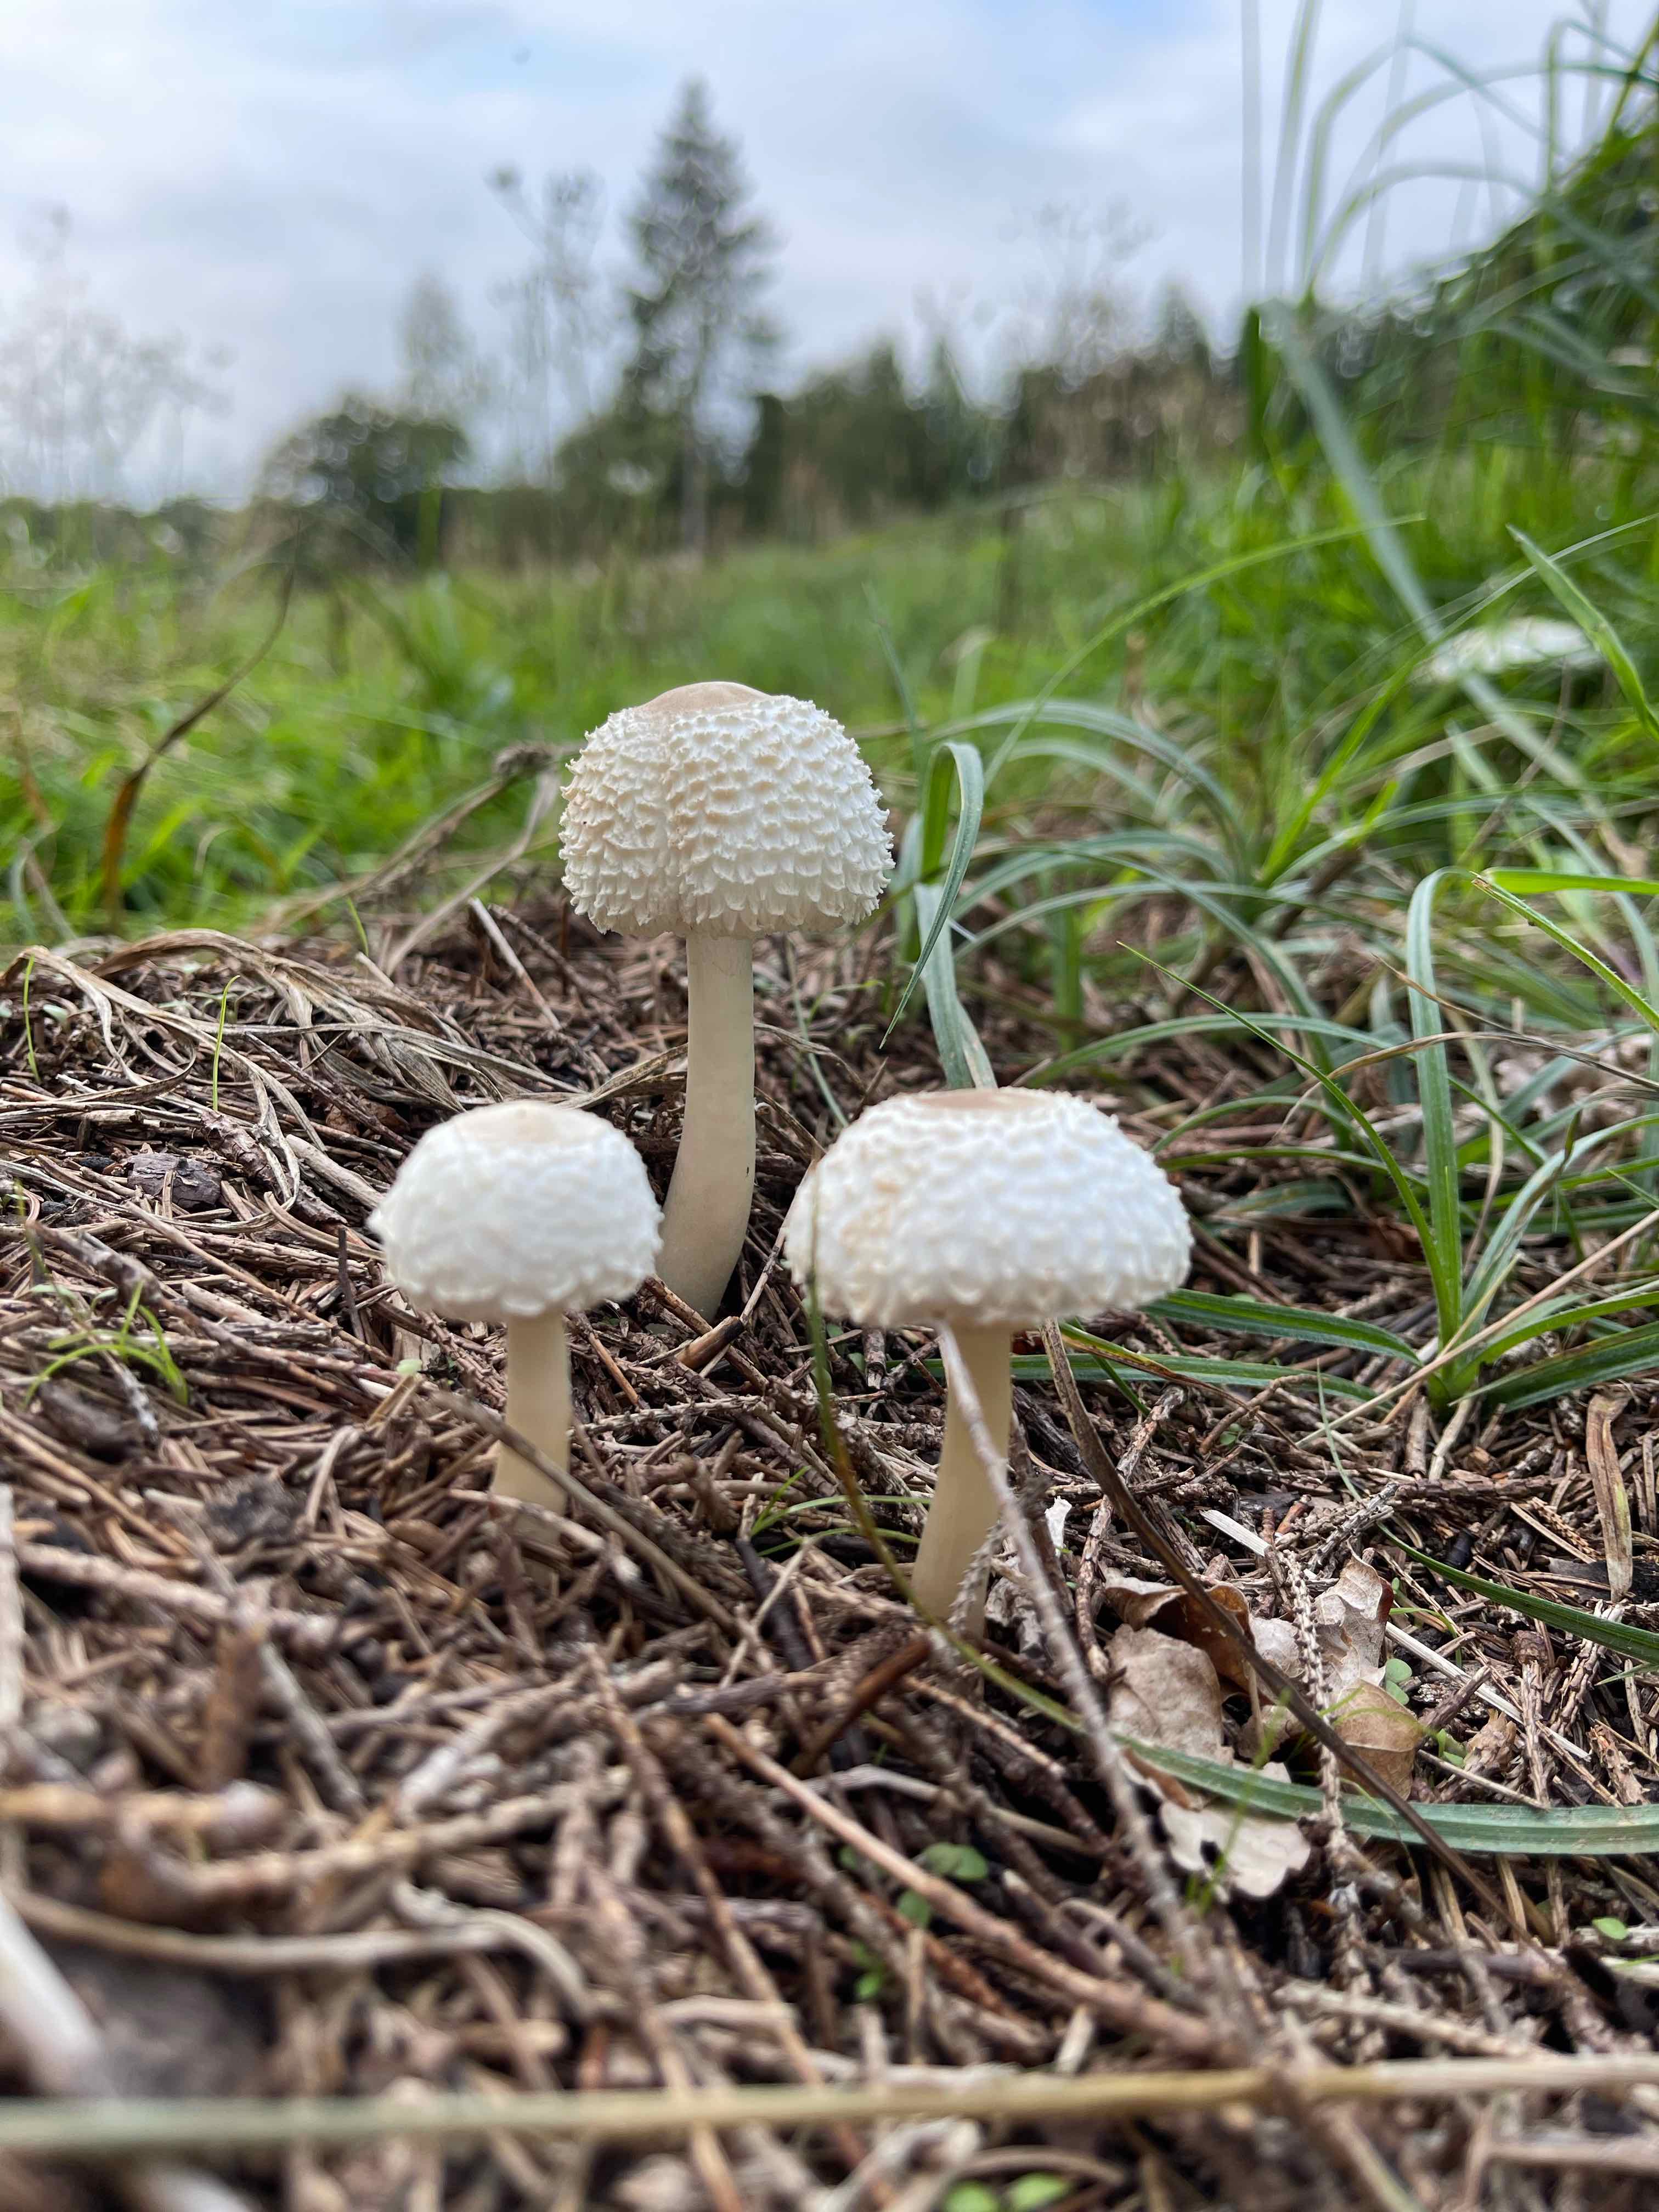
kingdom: Fungi
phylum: Basidiomycota
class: Agaricomycetes
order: Agaricales
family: Agaricaceae
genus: Leucoagaricus
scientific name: Leucoagaricus nympharum
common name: gran-silkehat
